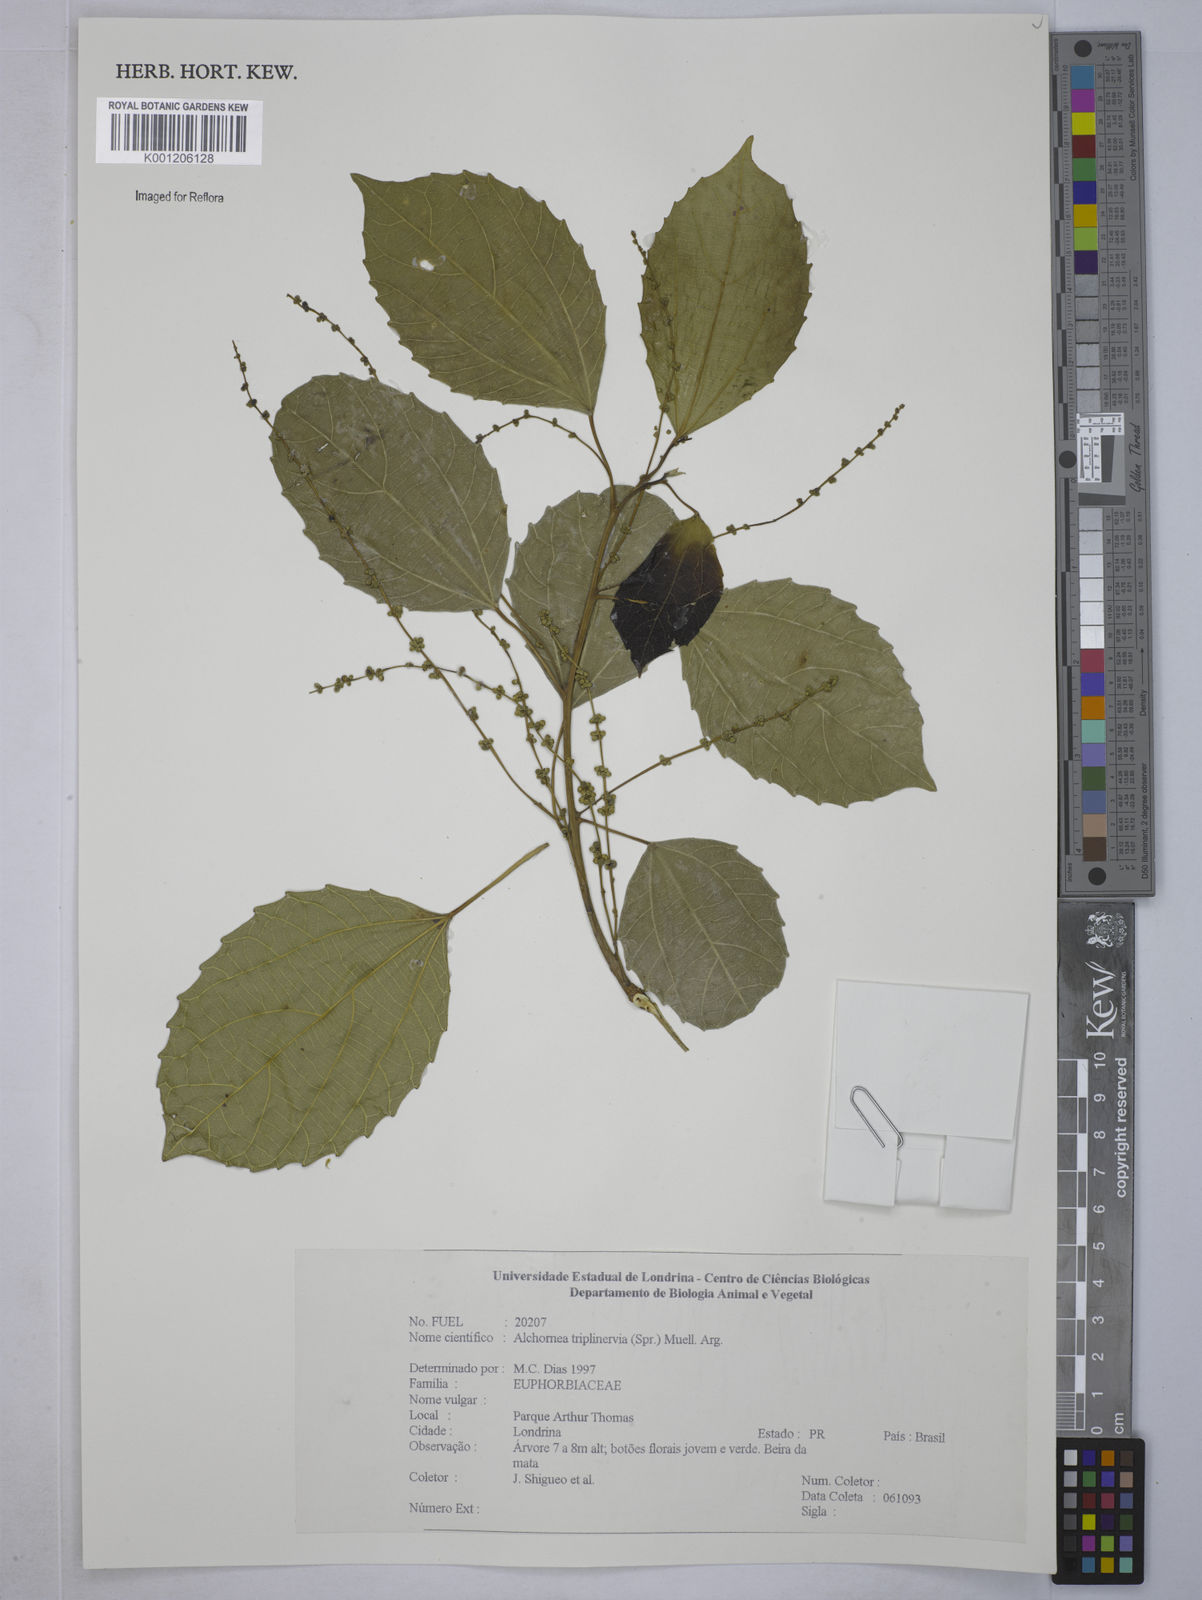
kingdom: Plantae
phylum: Tracheophyta
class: Magnoliopsida
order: Malpighiales
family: Euphorbiaceae
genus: Alchornea
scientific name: Alchornea
